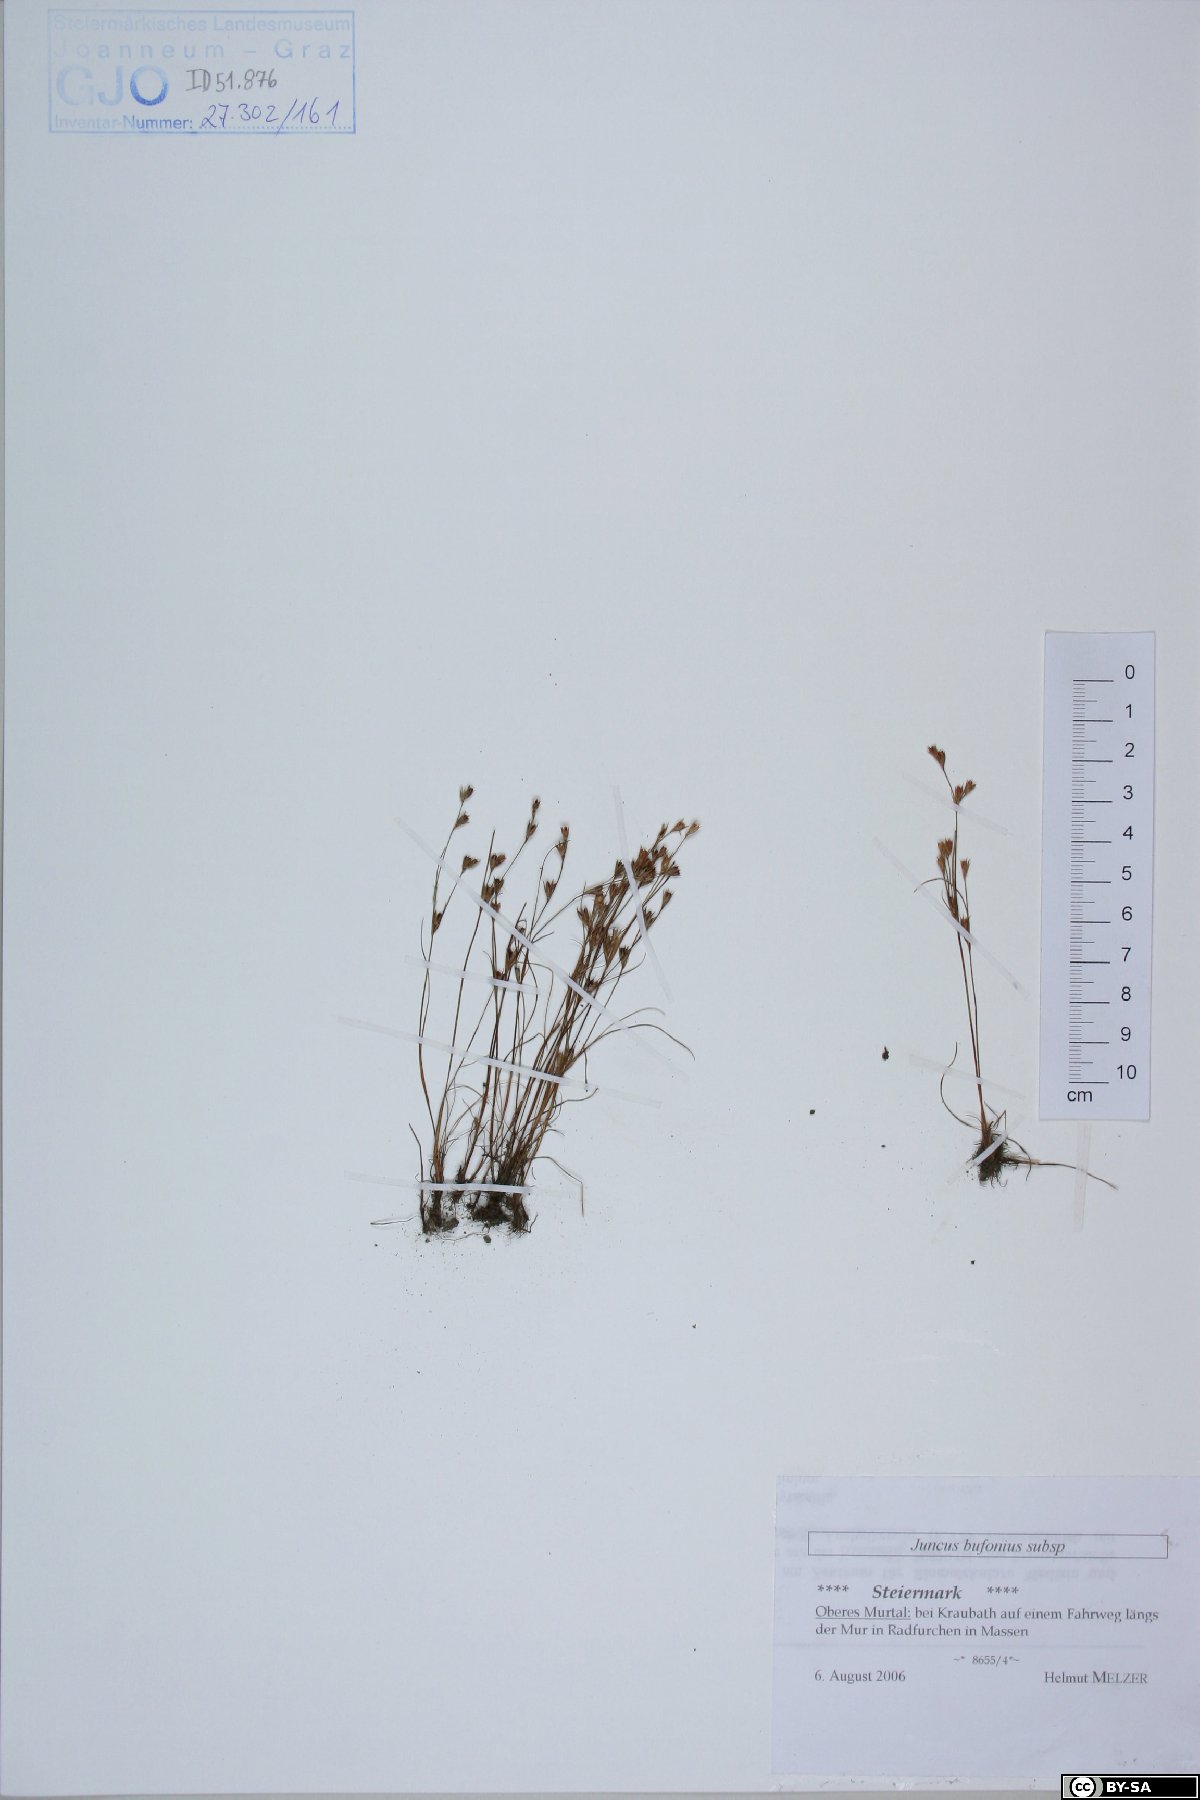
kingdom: Plantae
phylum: Tracheophyta
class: Liliopsida
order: Poales
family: Juncaceae
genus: Juncus
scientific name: Juncus bufonius
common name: Toad rush
